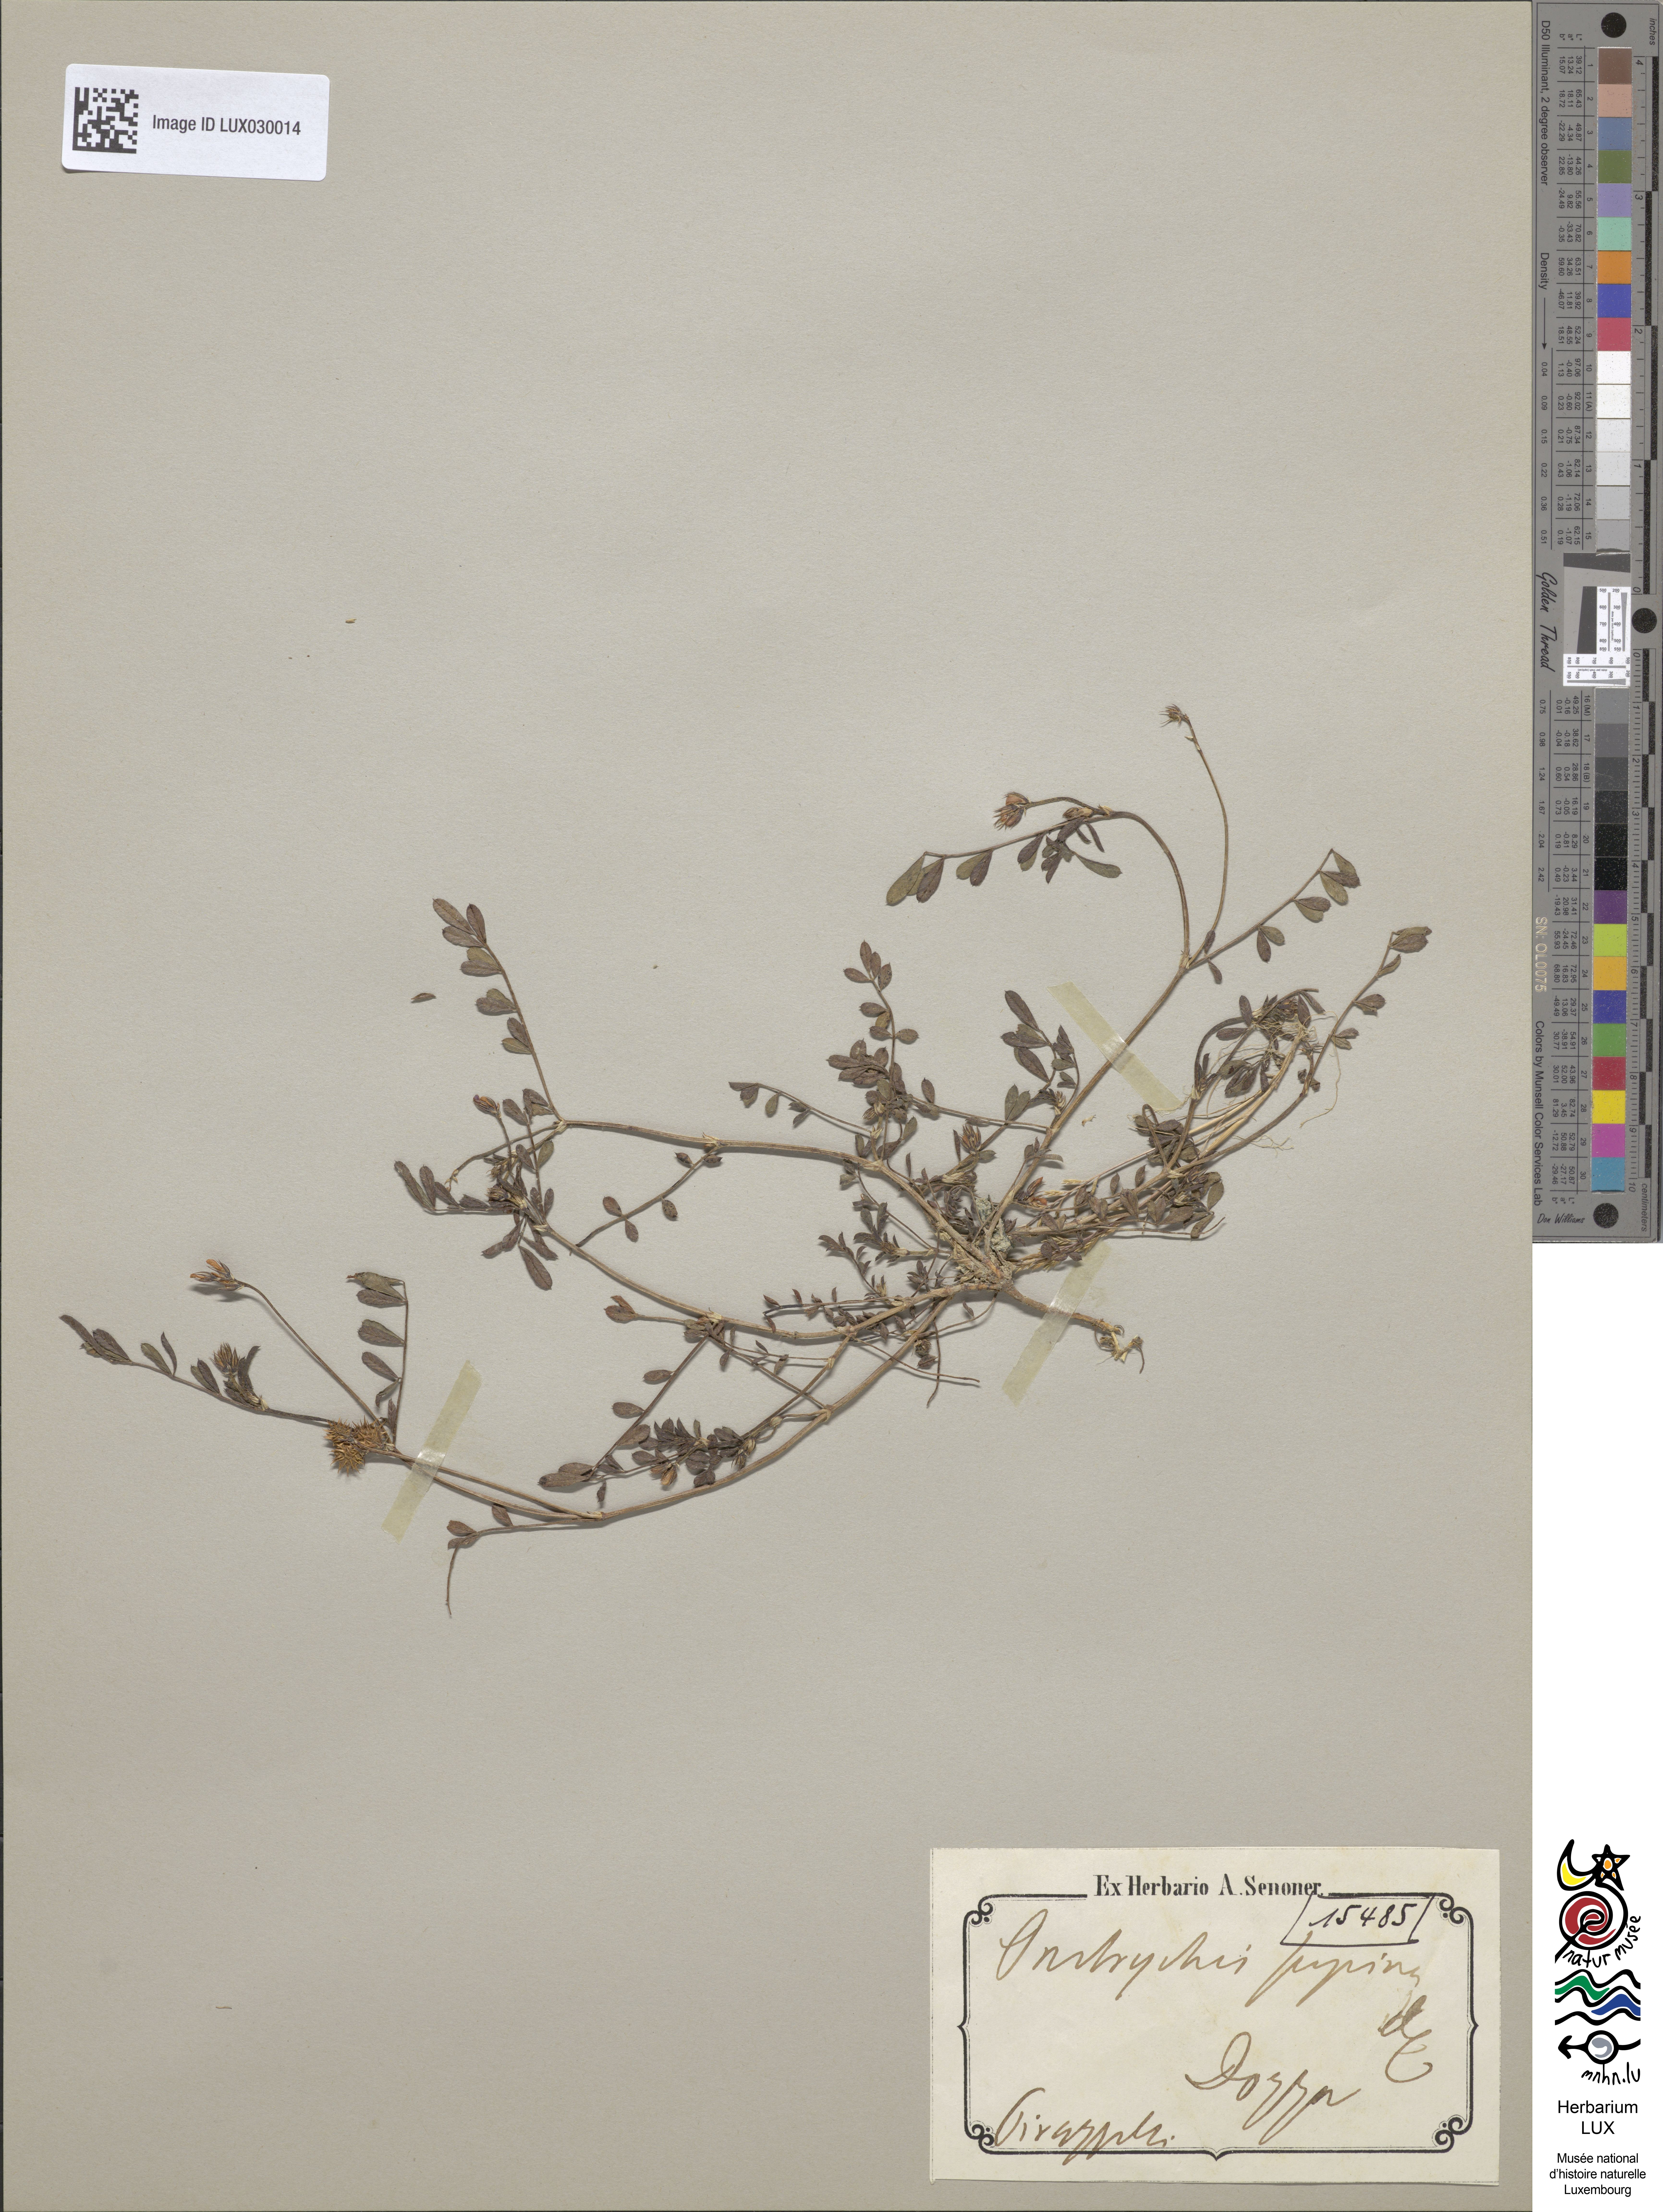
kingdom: Plantae
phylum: Tracheophyta
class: Magnoliopsida
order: Fabales
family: Fabaceae
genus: Onobrychis
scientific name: Onobrychis supina
